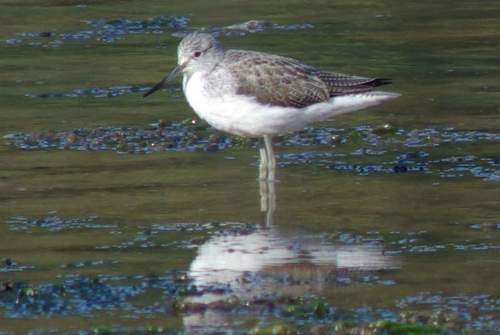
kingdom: Animalia
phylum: Chordata
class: Aves
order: Charadriiformes
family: Scolopacidae
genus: Tringa
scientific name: Tringa nebularia
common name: Common greenshank
